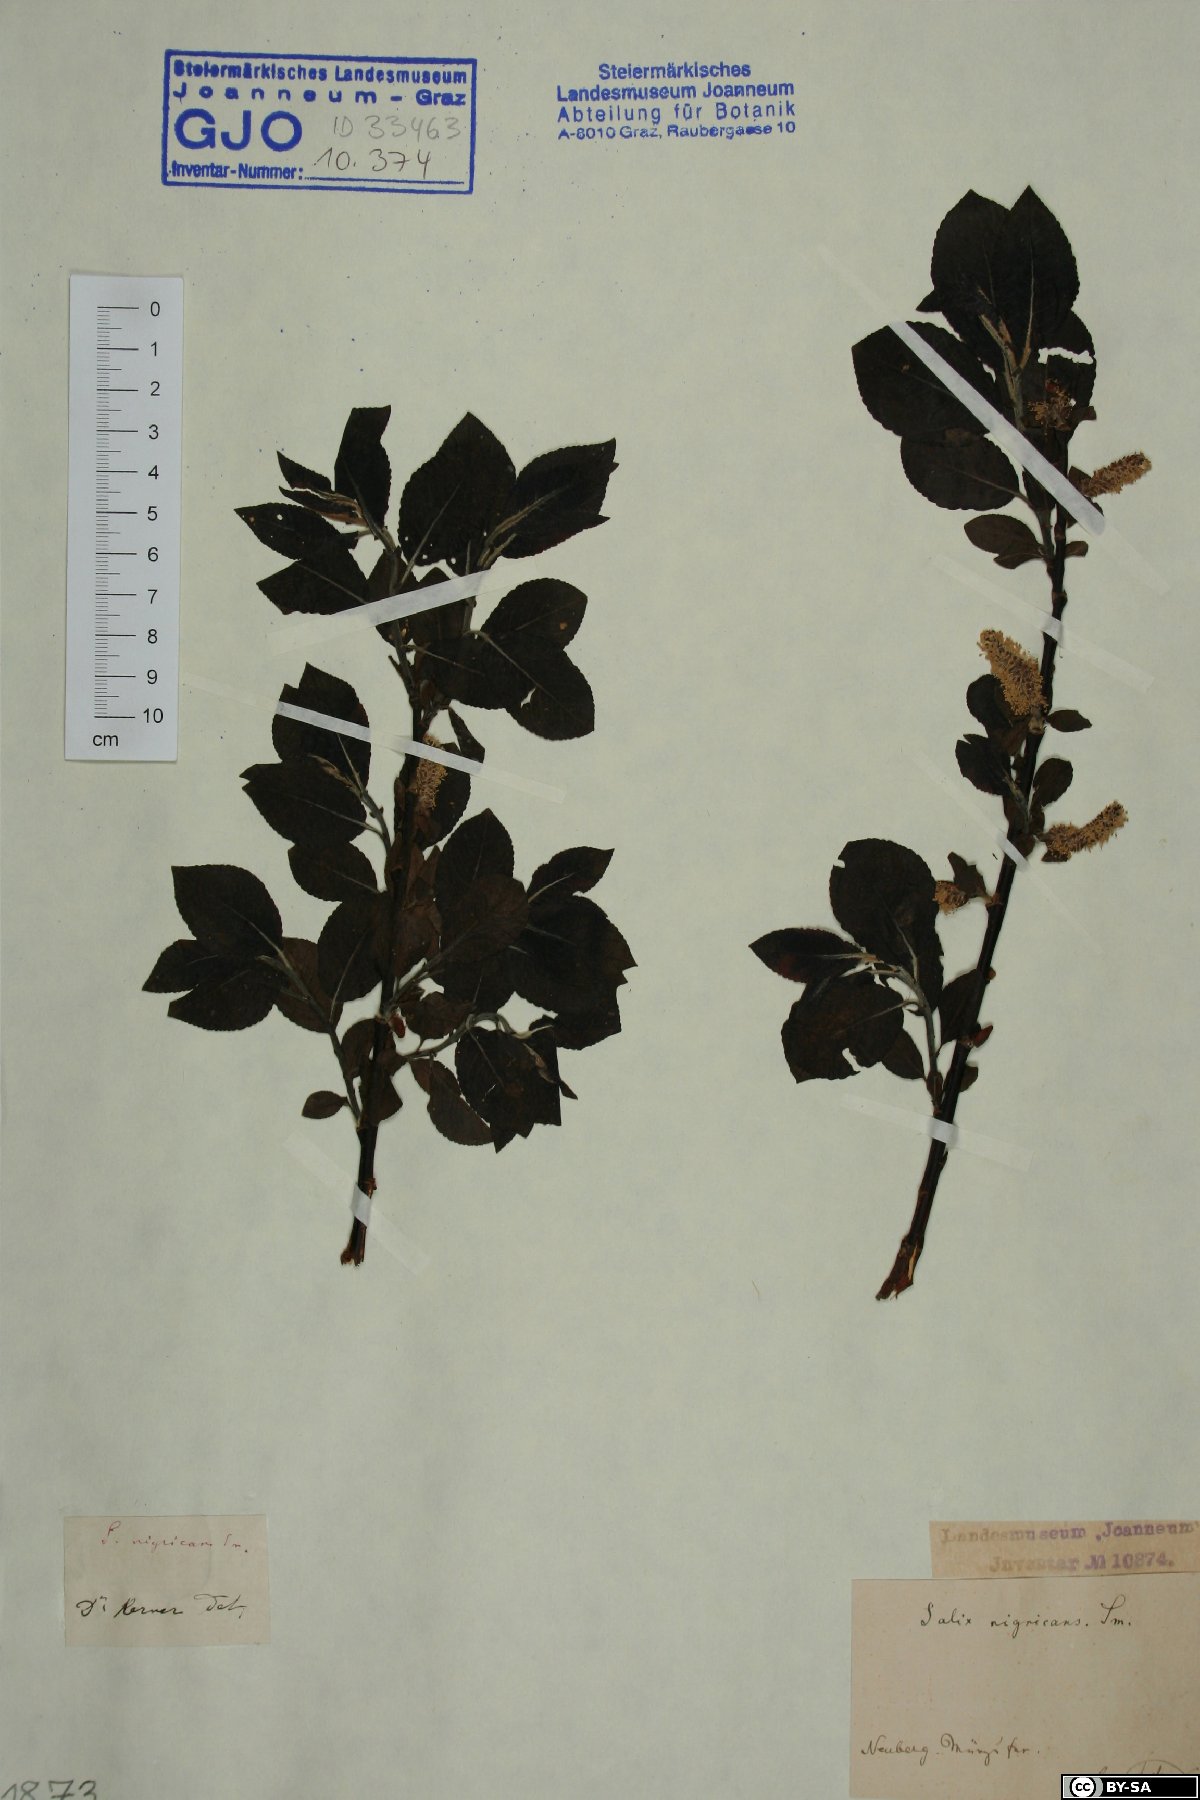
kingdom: Plantae
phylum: Tracheophyta
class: Magnoliopsida
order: Malpighiales
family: Salicaceae
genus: Salix
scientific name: Salix myrsinifolia
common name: Dark-leaved willow
